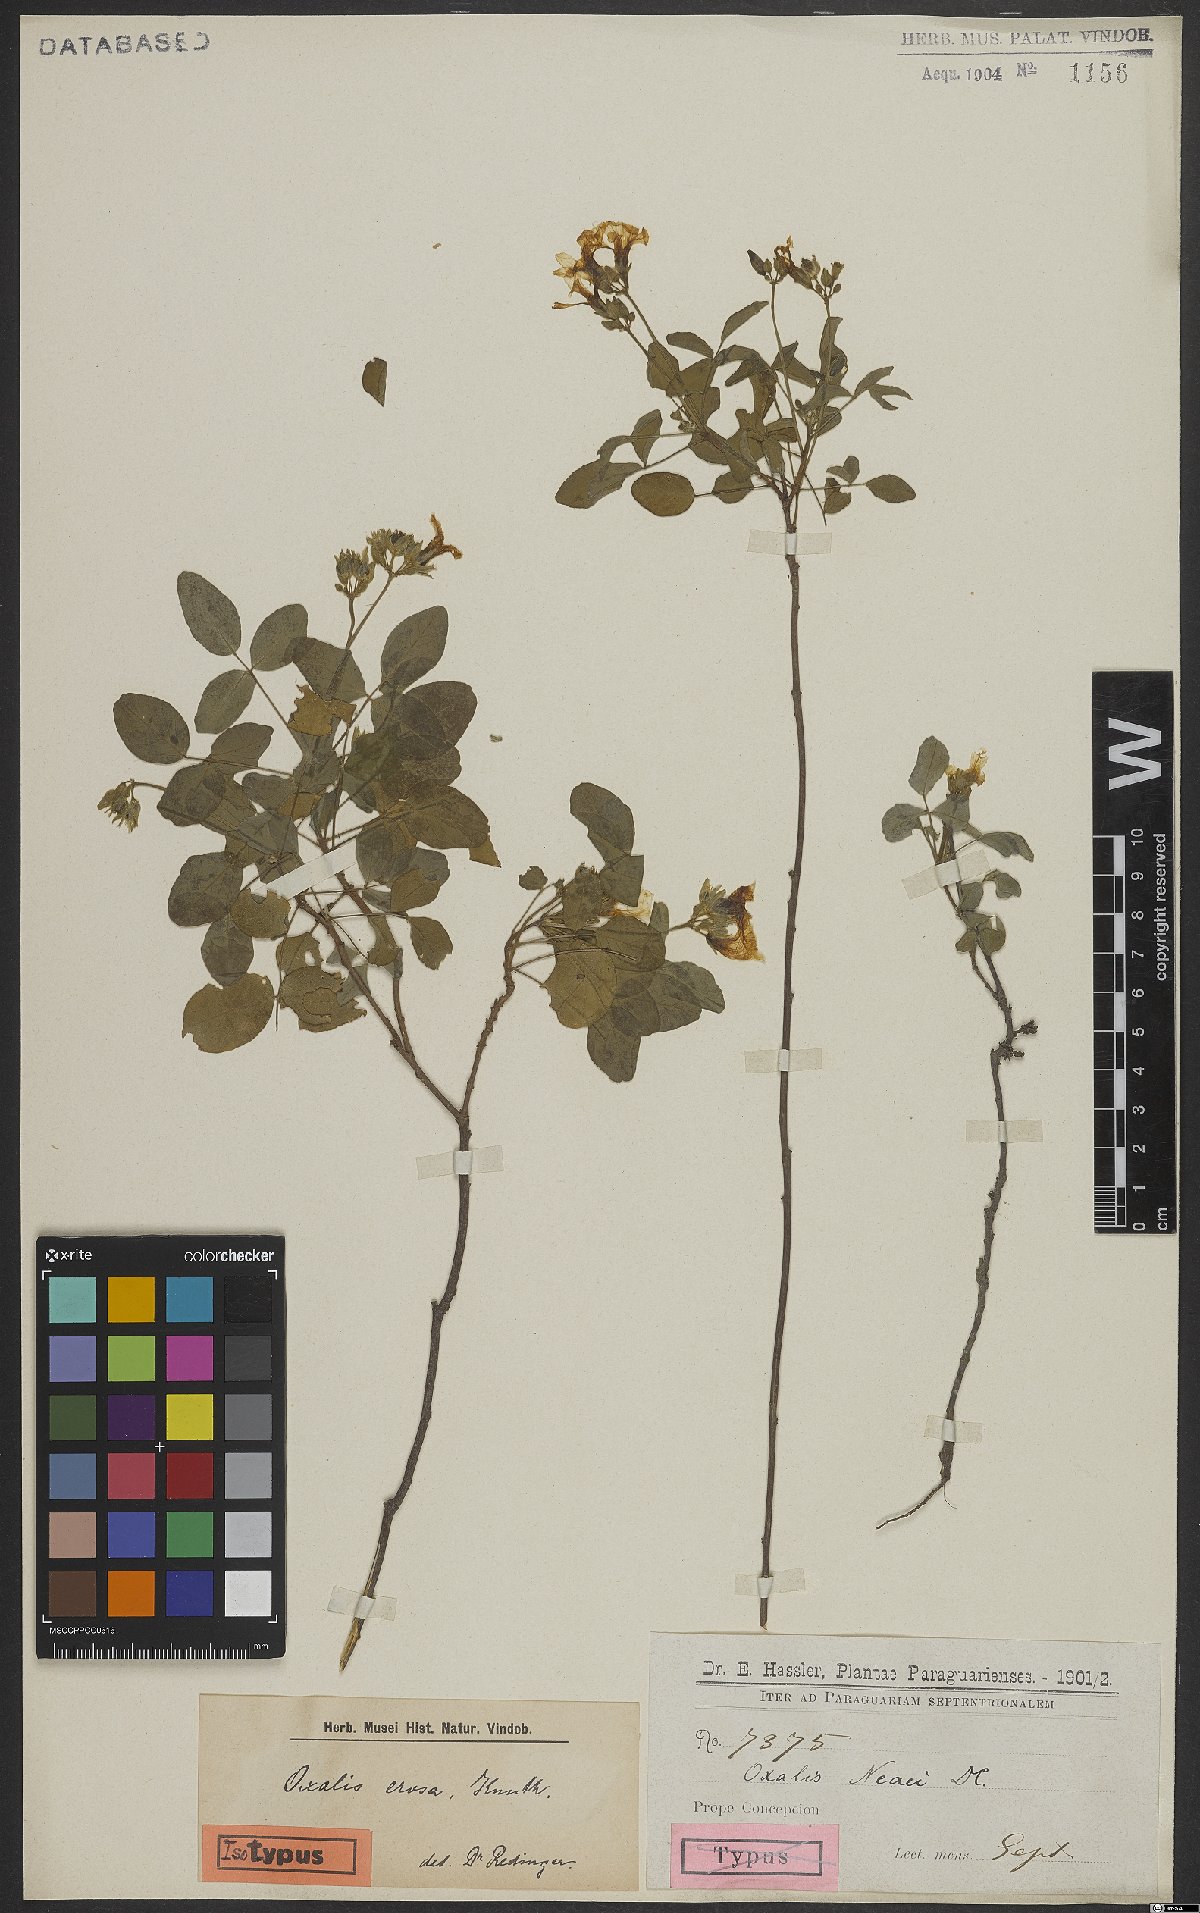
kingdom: Plantae
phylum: Tracheophyta
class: Magnoliopsida
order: Oxalidales
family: Oxalidaceae
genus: Oxalis
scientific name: Oxalis erosa
